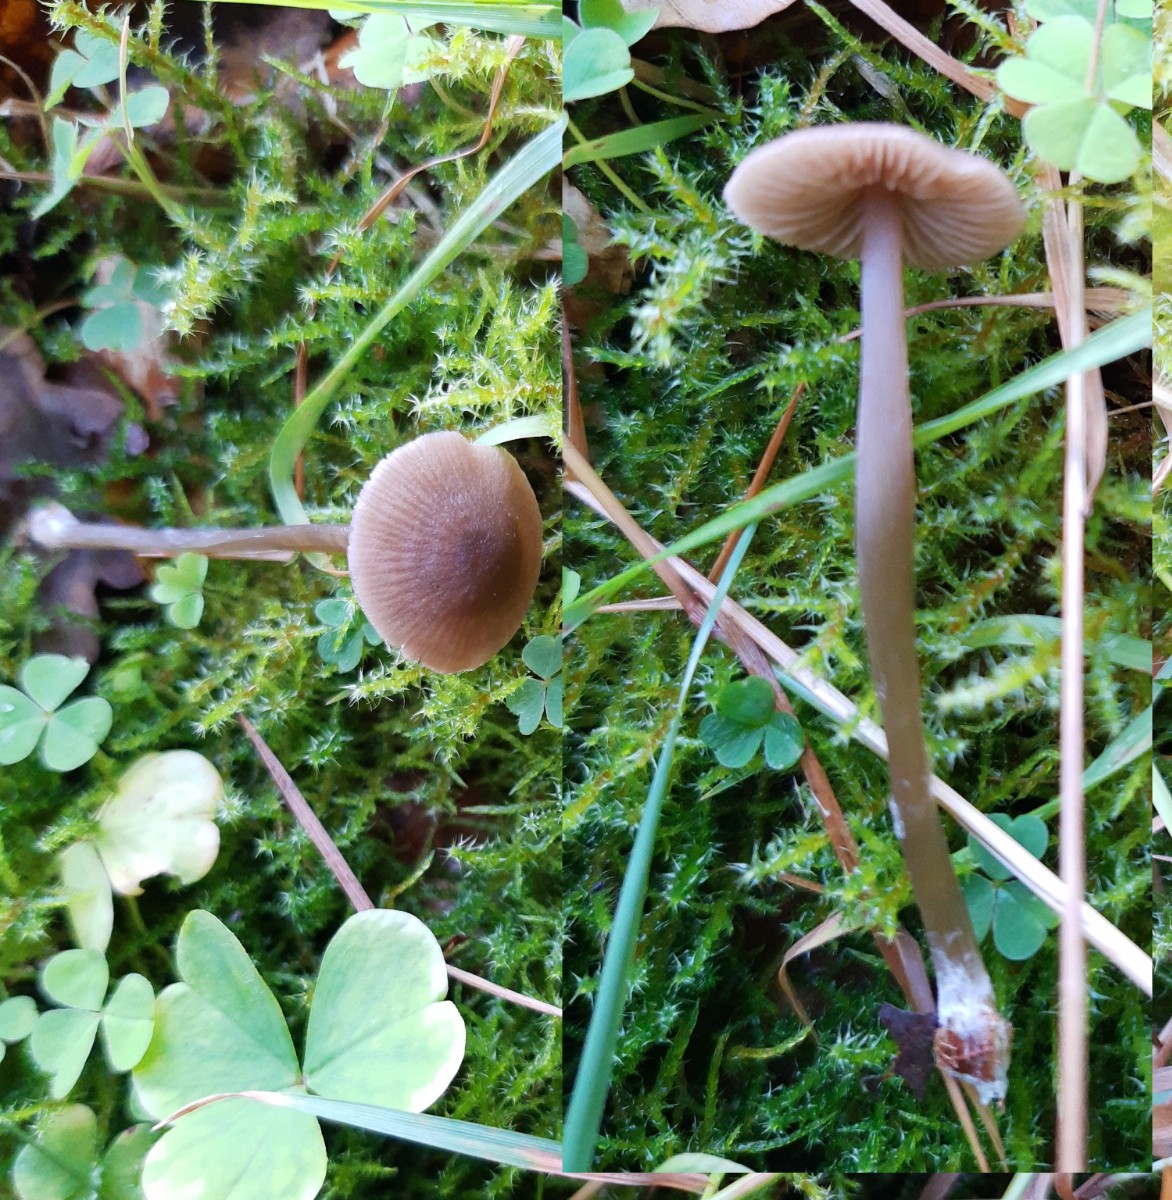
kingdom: Fungi
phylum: Basidiomycota
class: Agaricomycetes
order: Agaricales
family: Entolomataceae
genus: Entoloma
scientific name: Entoloma
